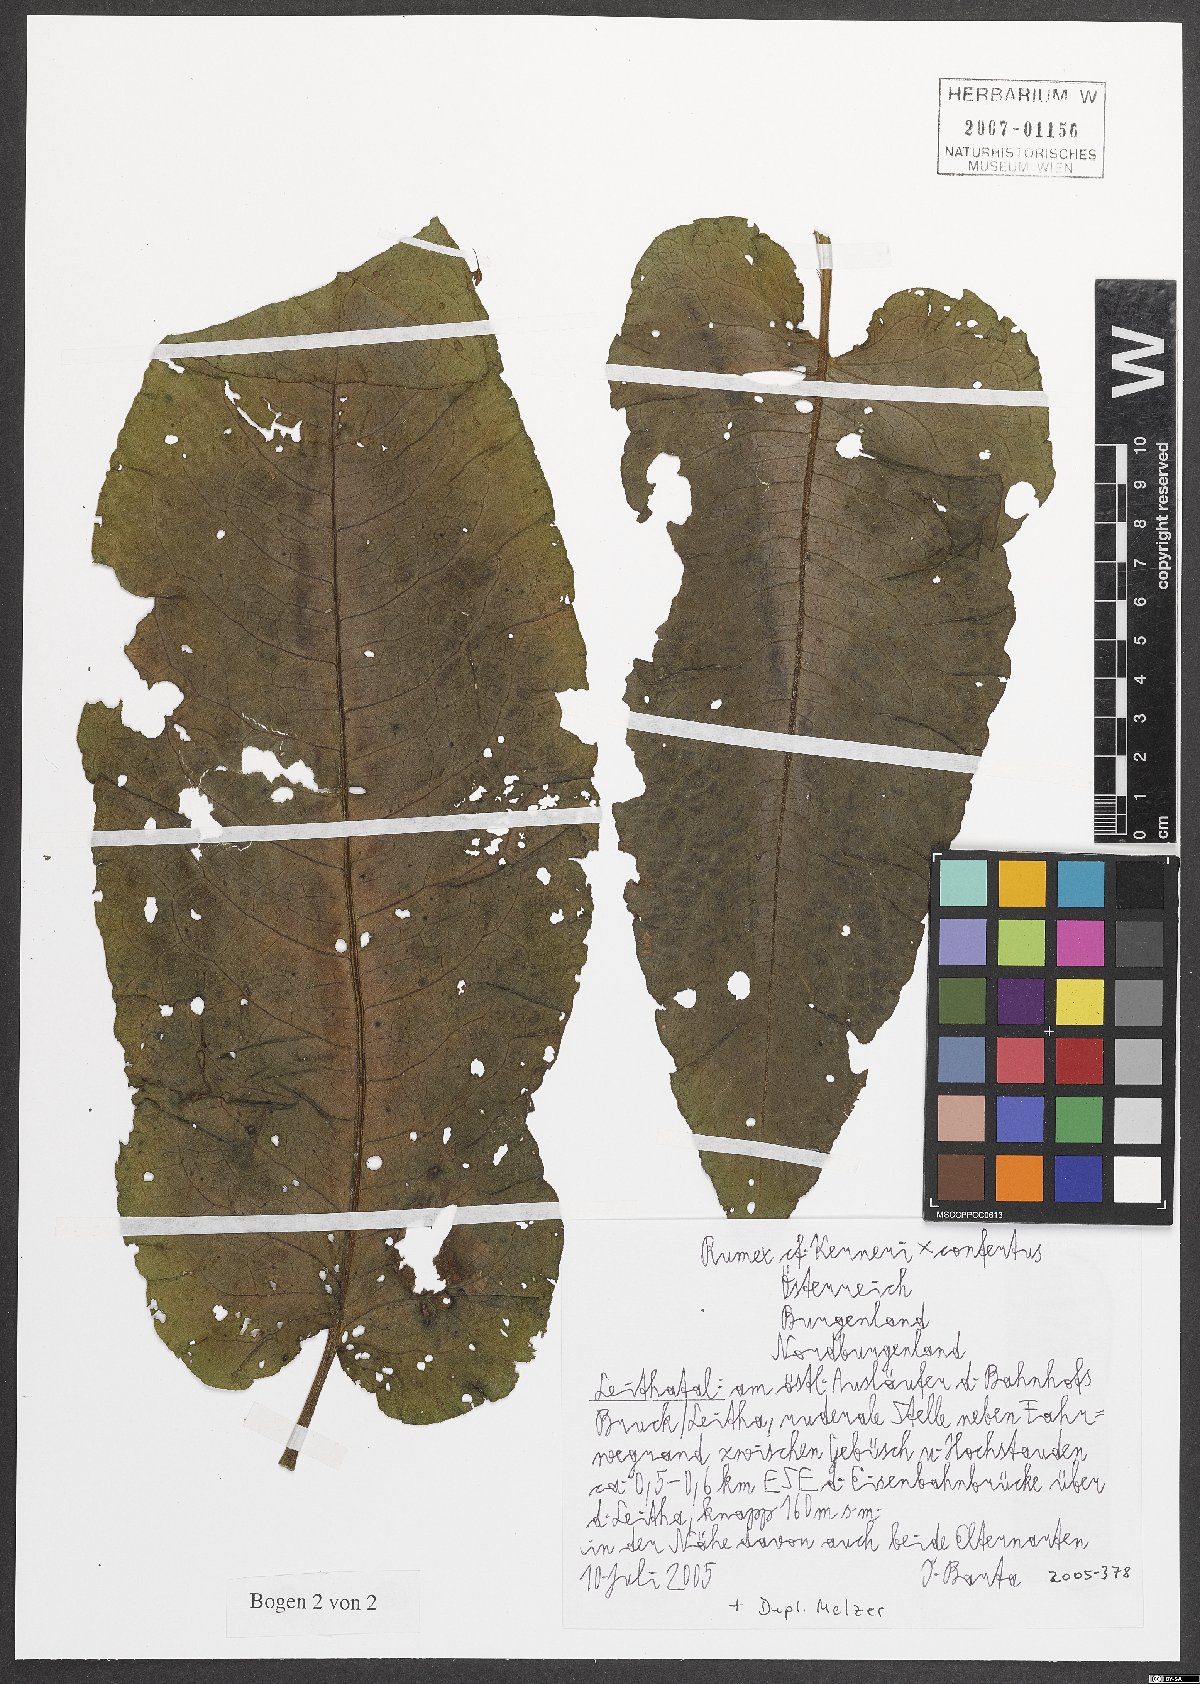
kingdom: Plantae
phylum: Tracheophyta
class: Magnoliopsida
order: Caryophyllales
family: Polygonaceae
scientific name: Polygonaceae
